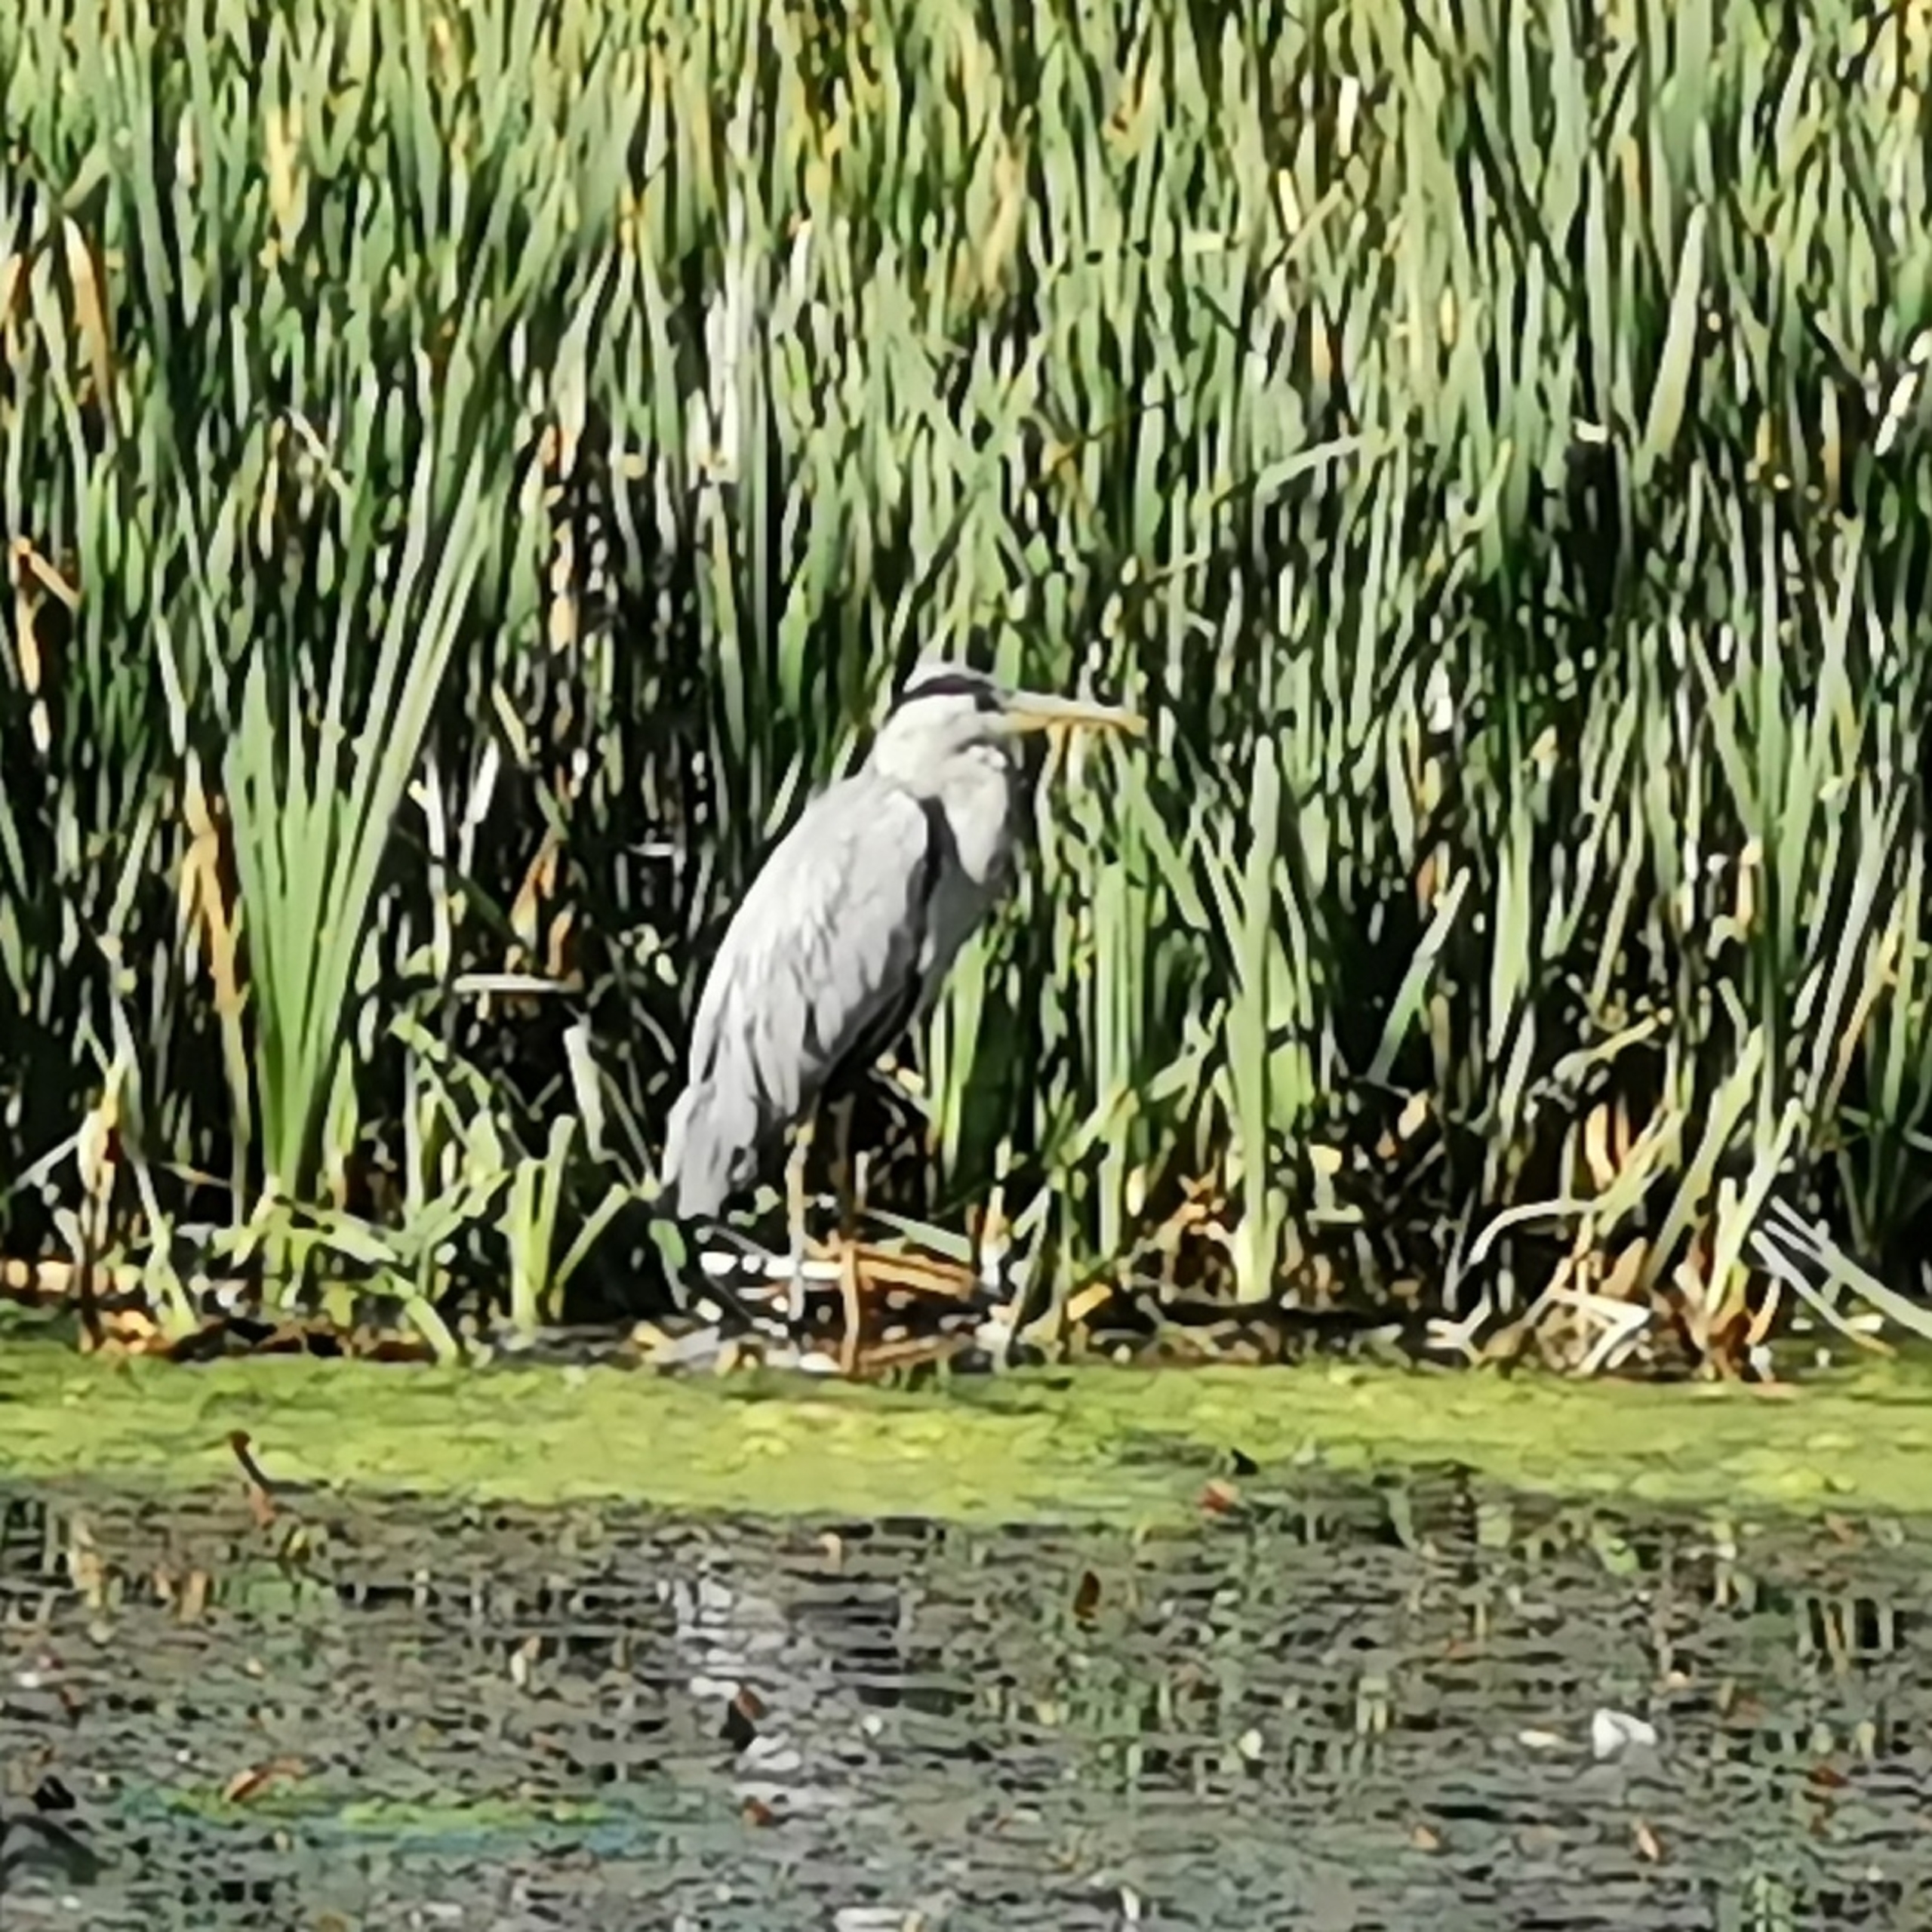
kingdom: Animalia
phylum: Chordata
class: Aves
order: Pelecaniformes
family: Ardeidae
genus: Ardea
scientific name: Ardea cinerea
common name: Fiskehejre
